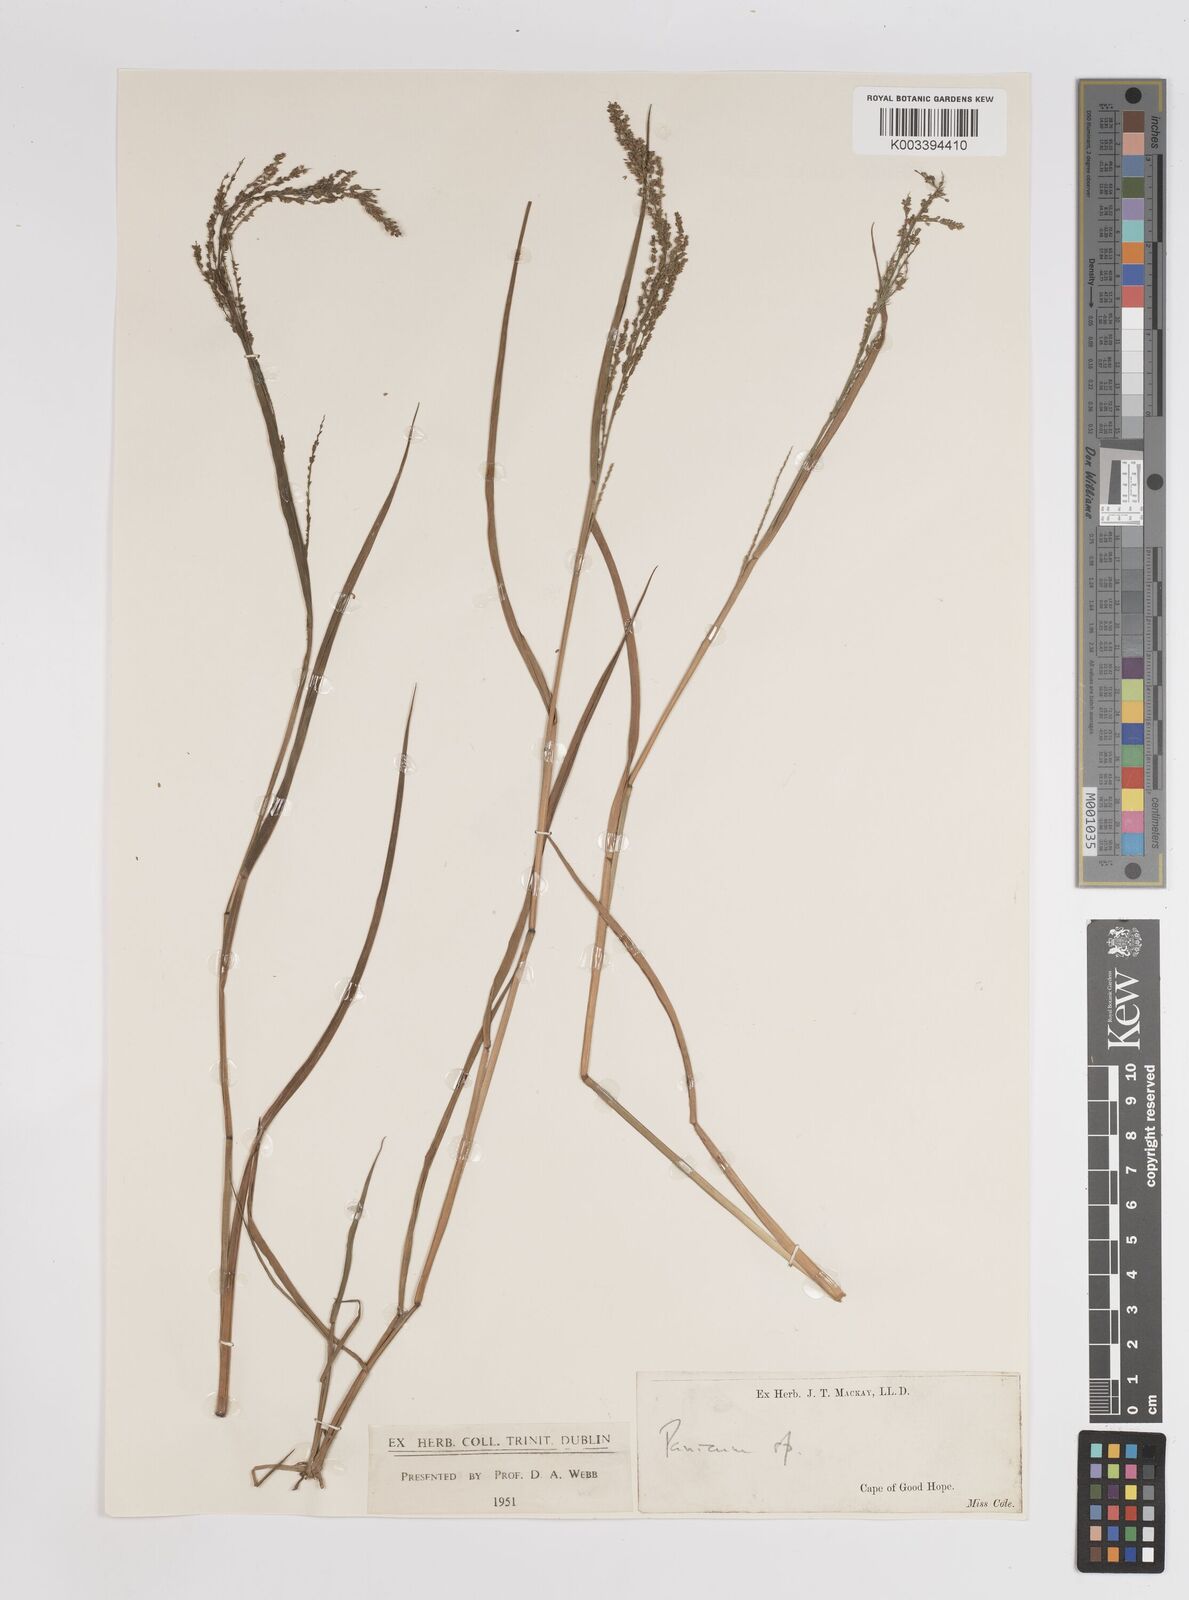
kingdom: Plantae
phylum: Tracheophyta
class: Liliopsida
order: Poales
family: Poaceae
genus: Steinchisma
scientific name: Steinchisma laxum
